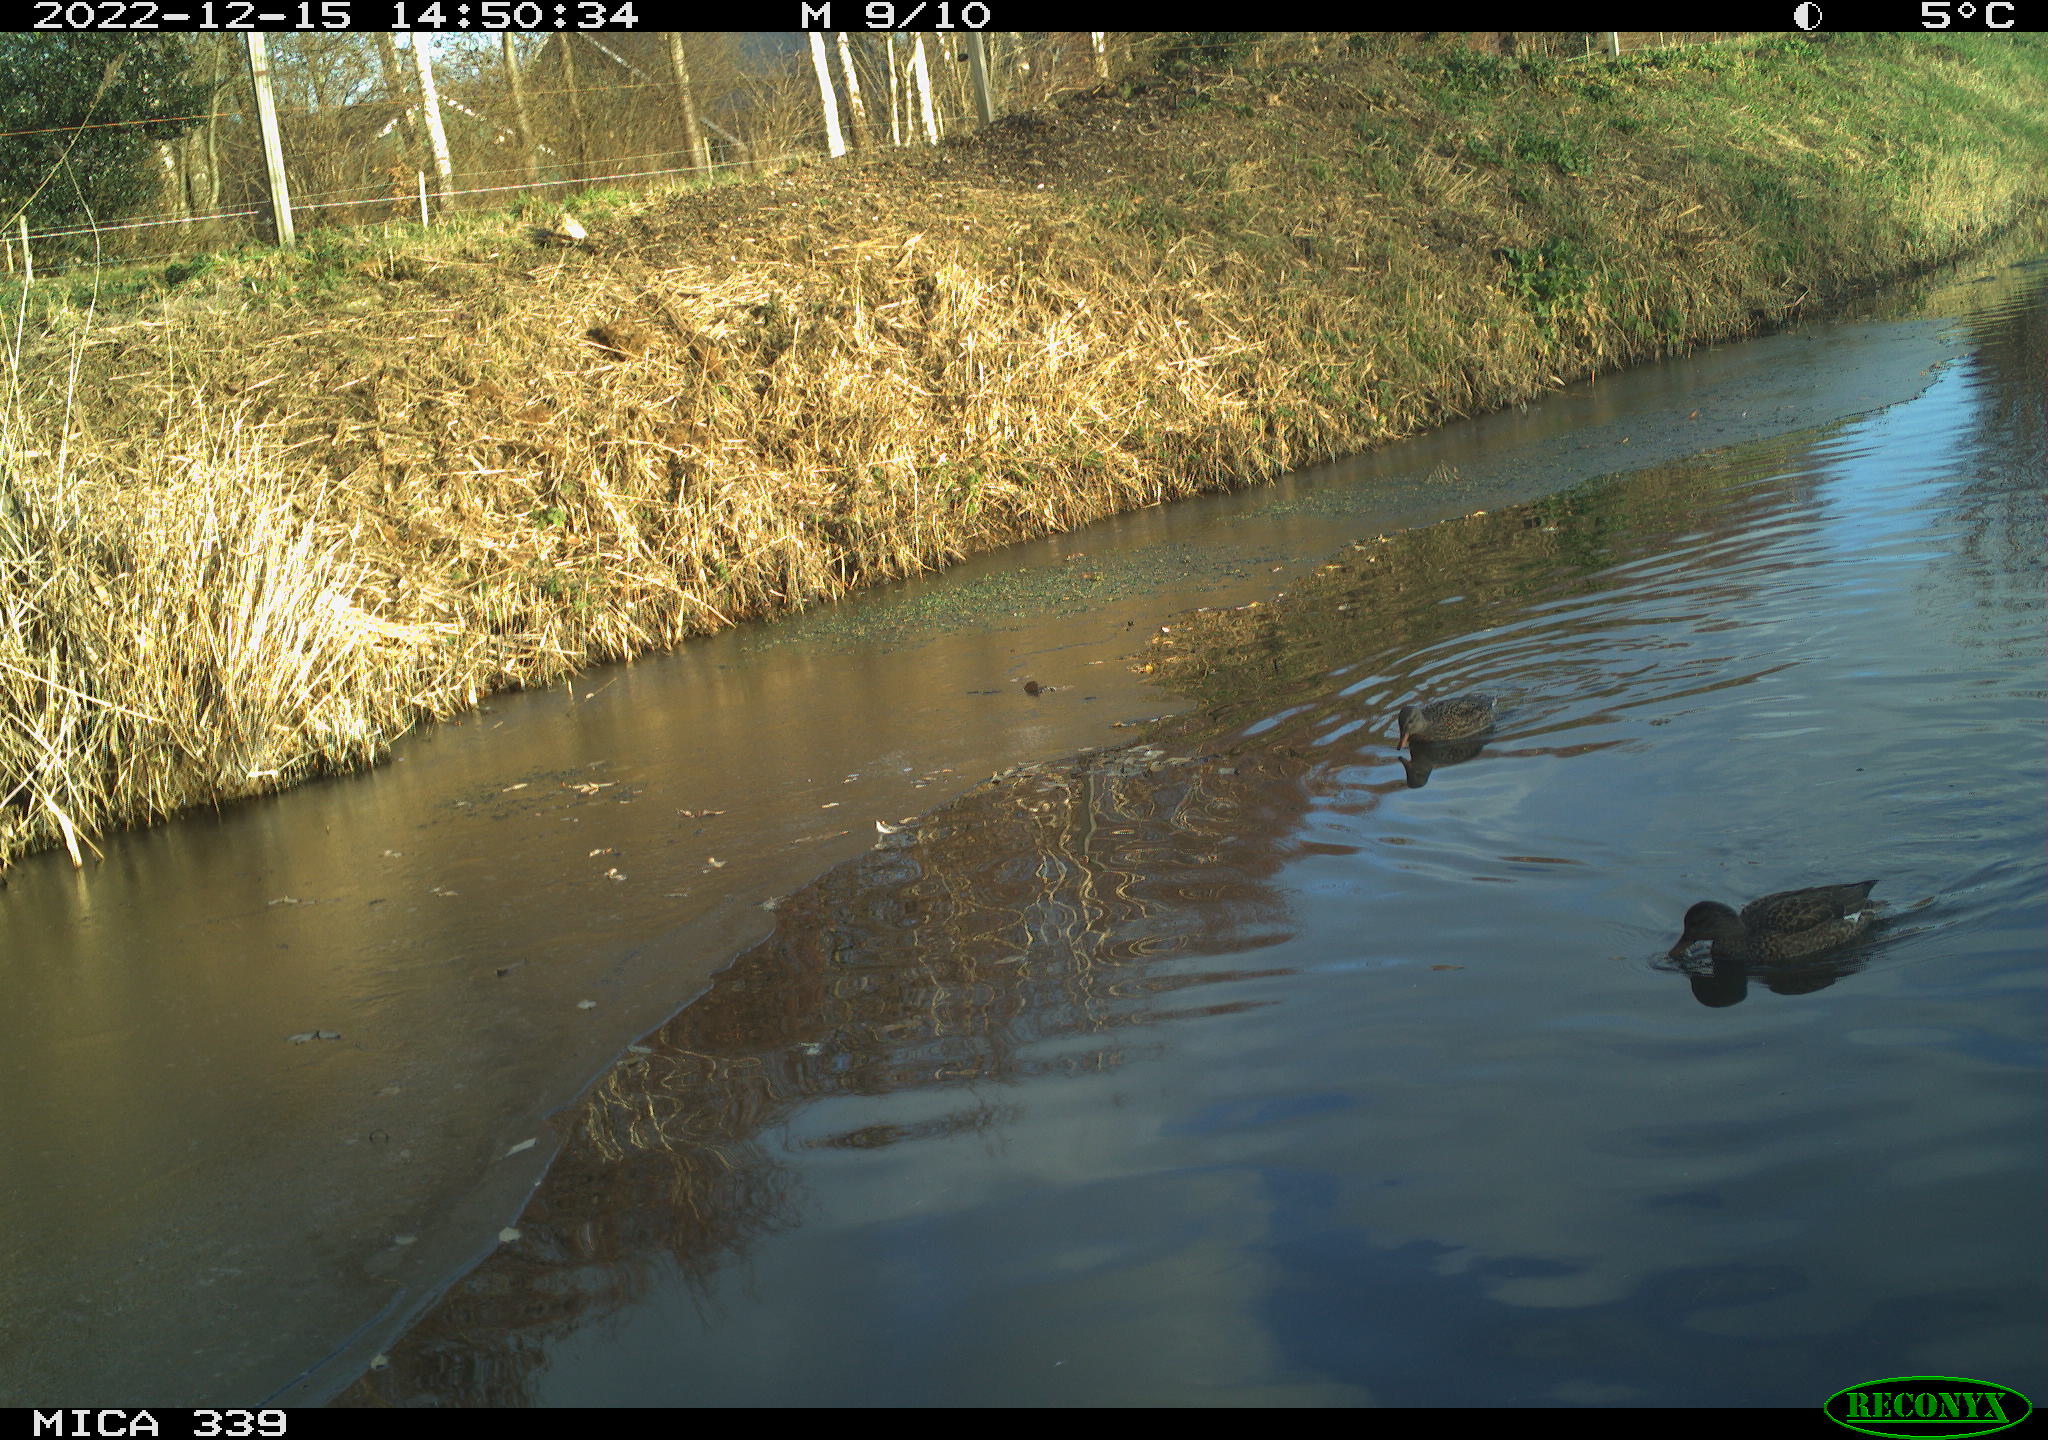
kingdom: Animalia
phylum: Chordata
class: Aves
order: Anseriformes
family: Anatidae
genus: Anas
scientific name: Anas
